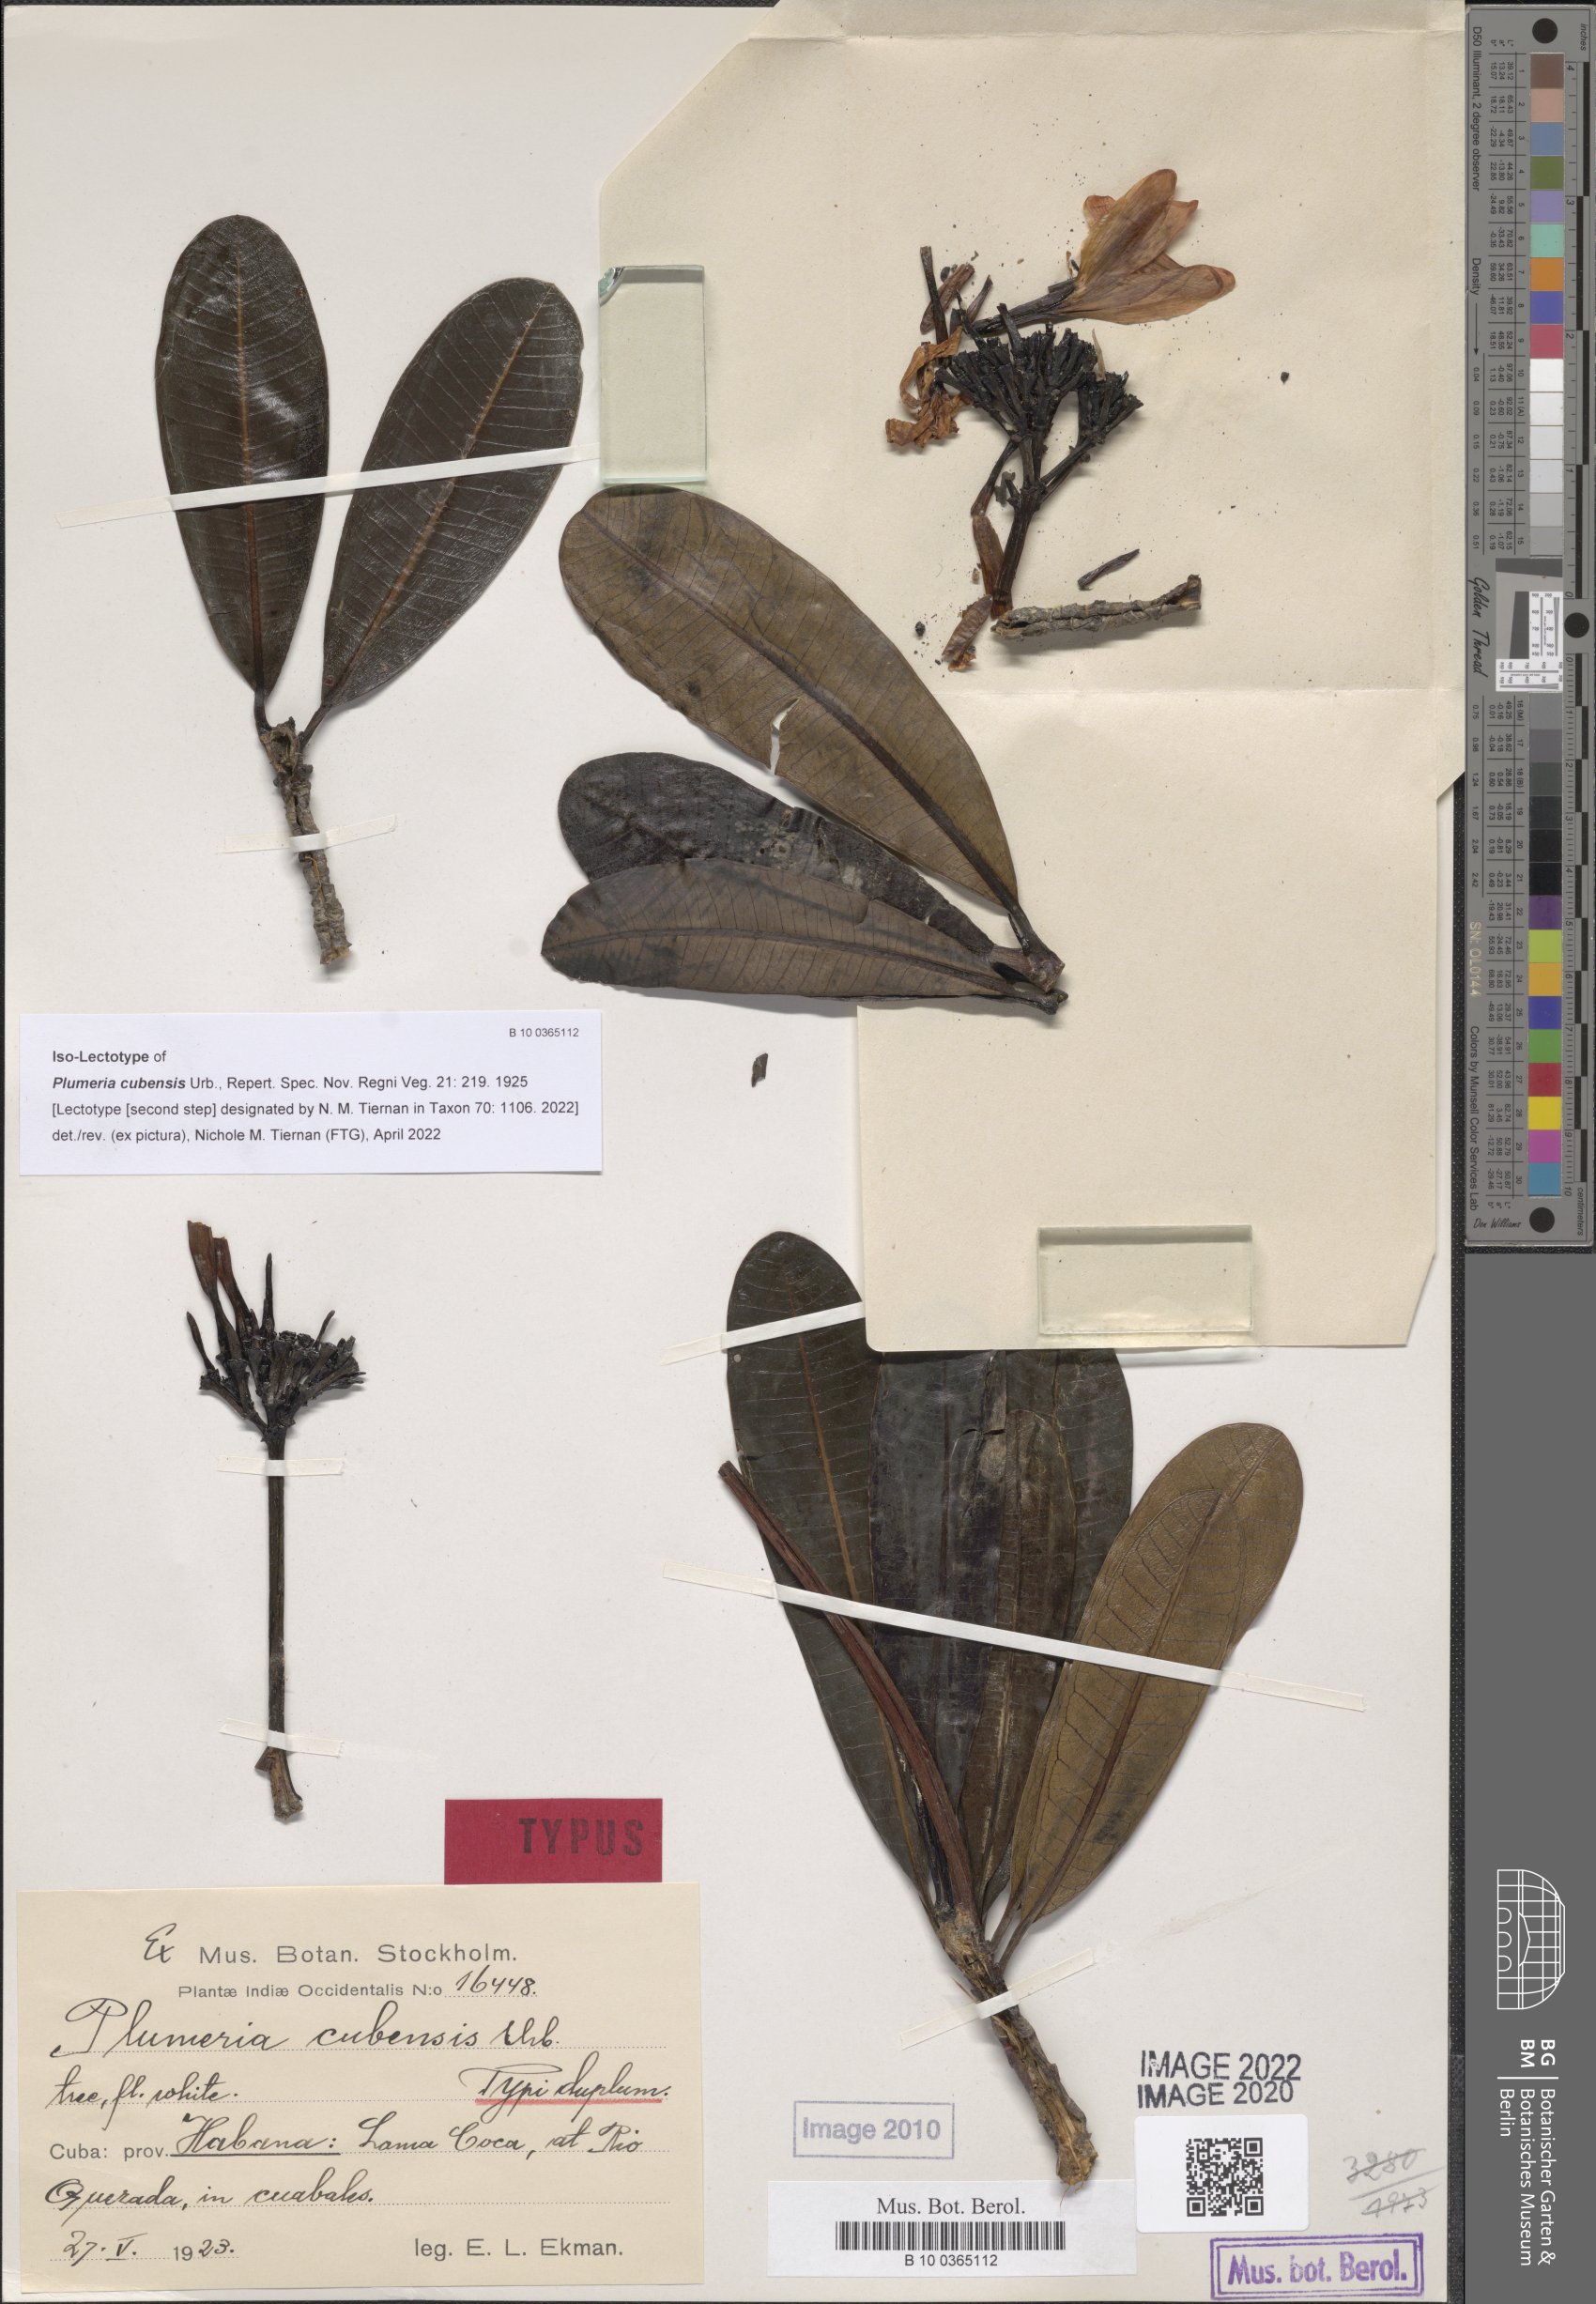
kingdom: Plantae
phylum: Tracheophyta
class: Magnoliopsida
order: Gentianales
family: Apocynaceae
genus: Plumeria
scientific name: Plumeria obtusa
